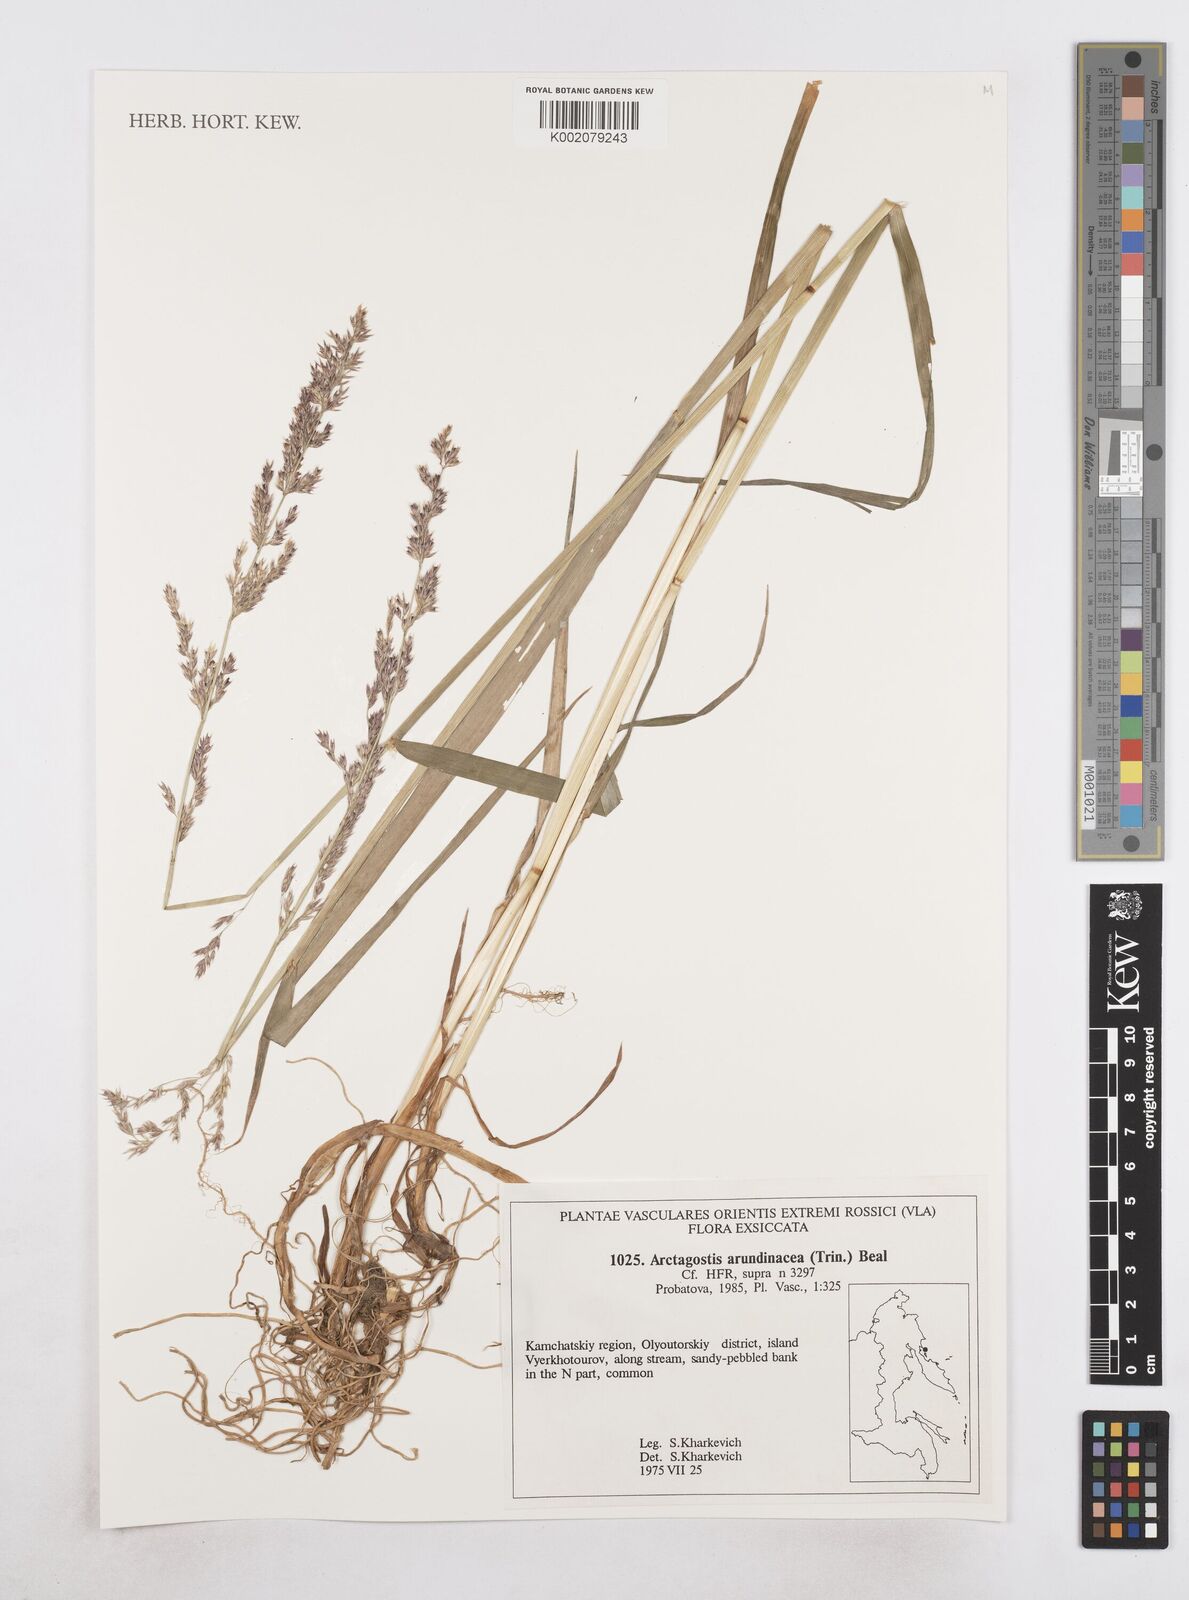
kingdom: Plantae
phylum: Tracheophyta
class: Liliopsida
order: Poales
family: Poaceae
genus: Arctagrostis
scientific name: Arctagrostis arundinacea
